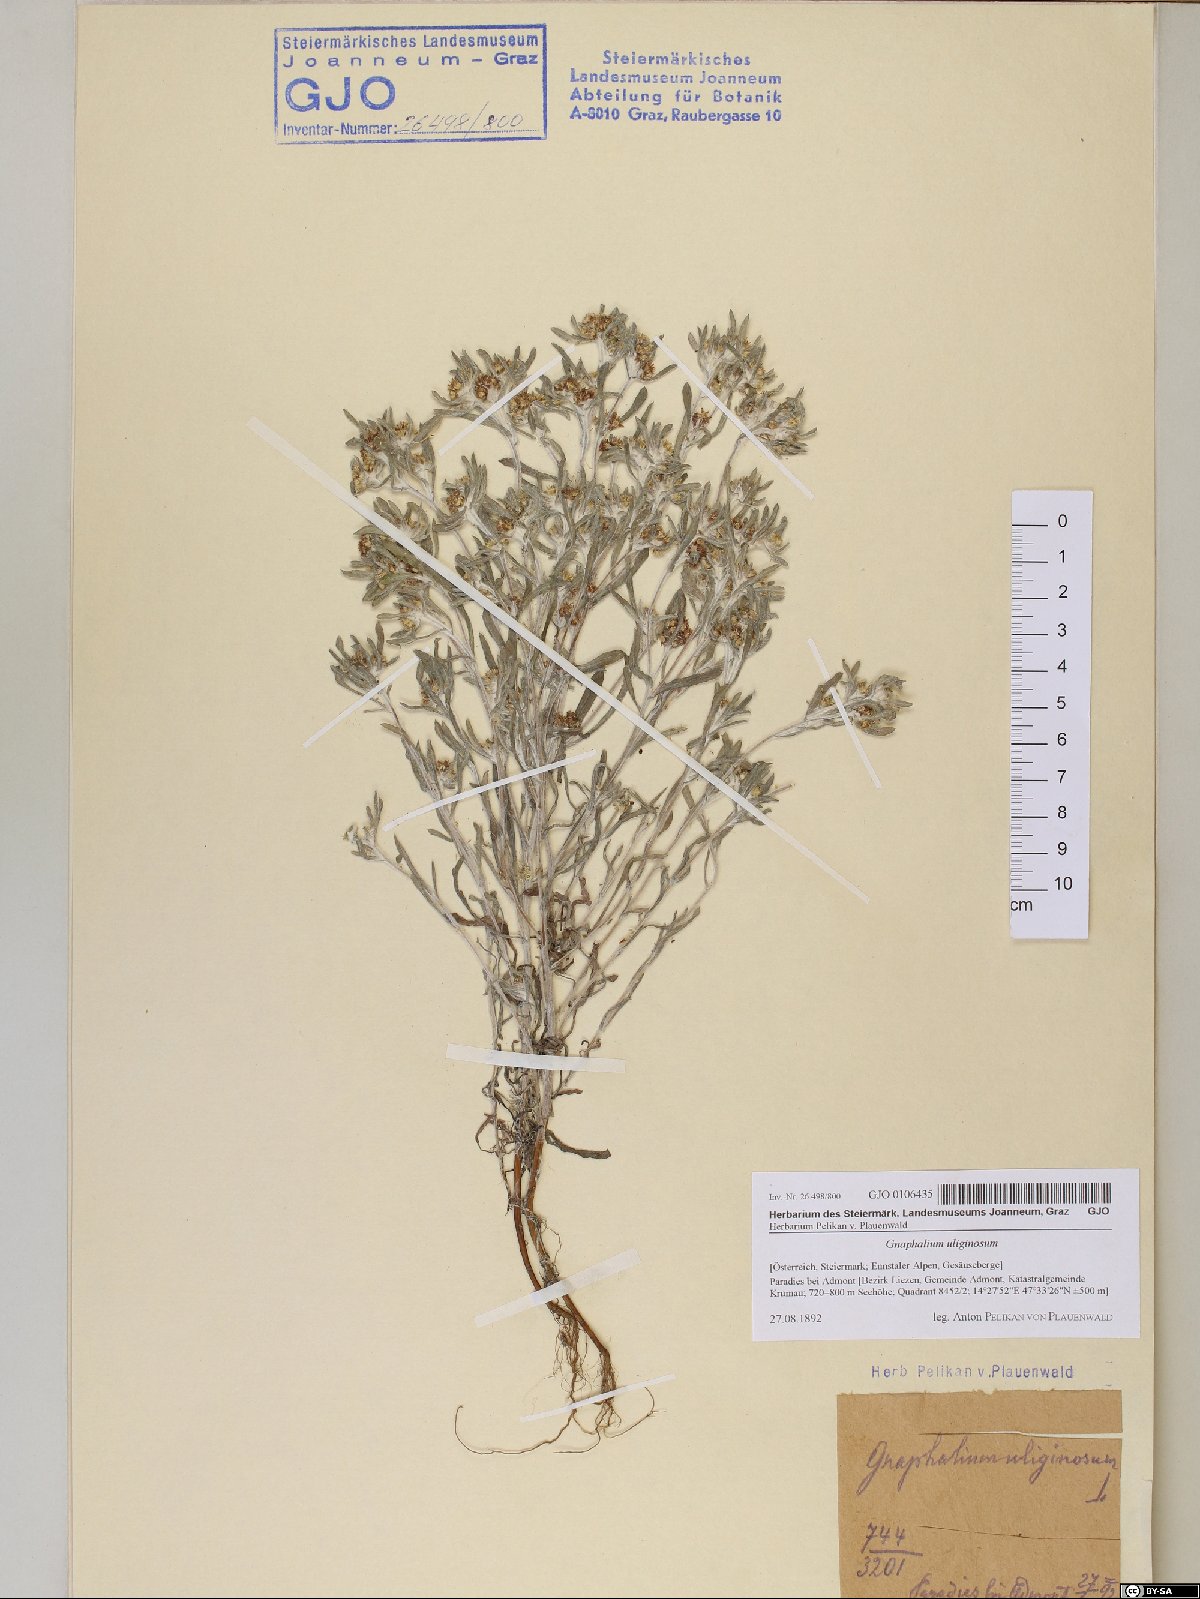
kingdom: Plantae
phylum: Tracheophyta
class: Magnoliopsida
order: Asterales
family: Asteraceae
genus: Gnaphalium
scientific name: Gnaphalium uliginosum
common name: Marsh cudweed
